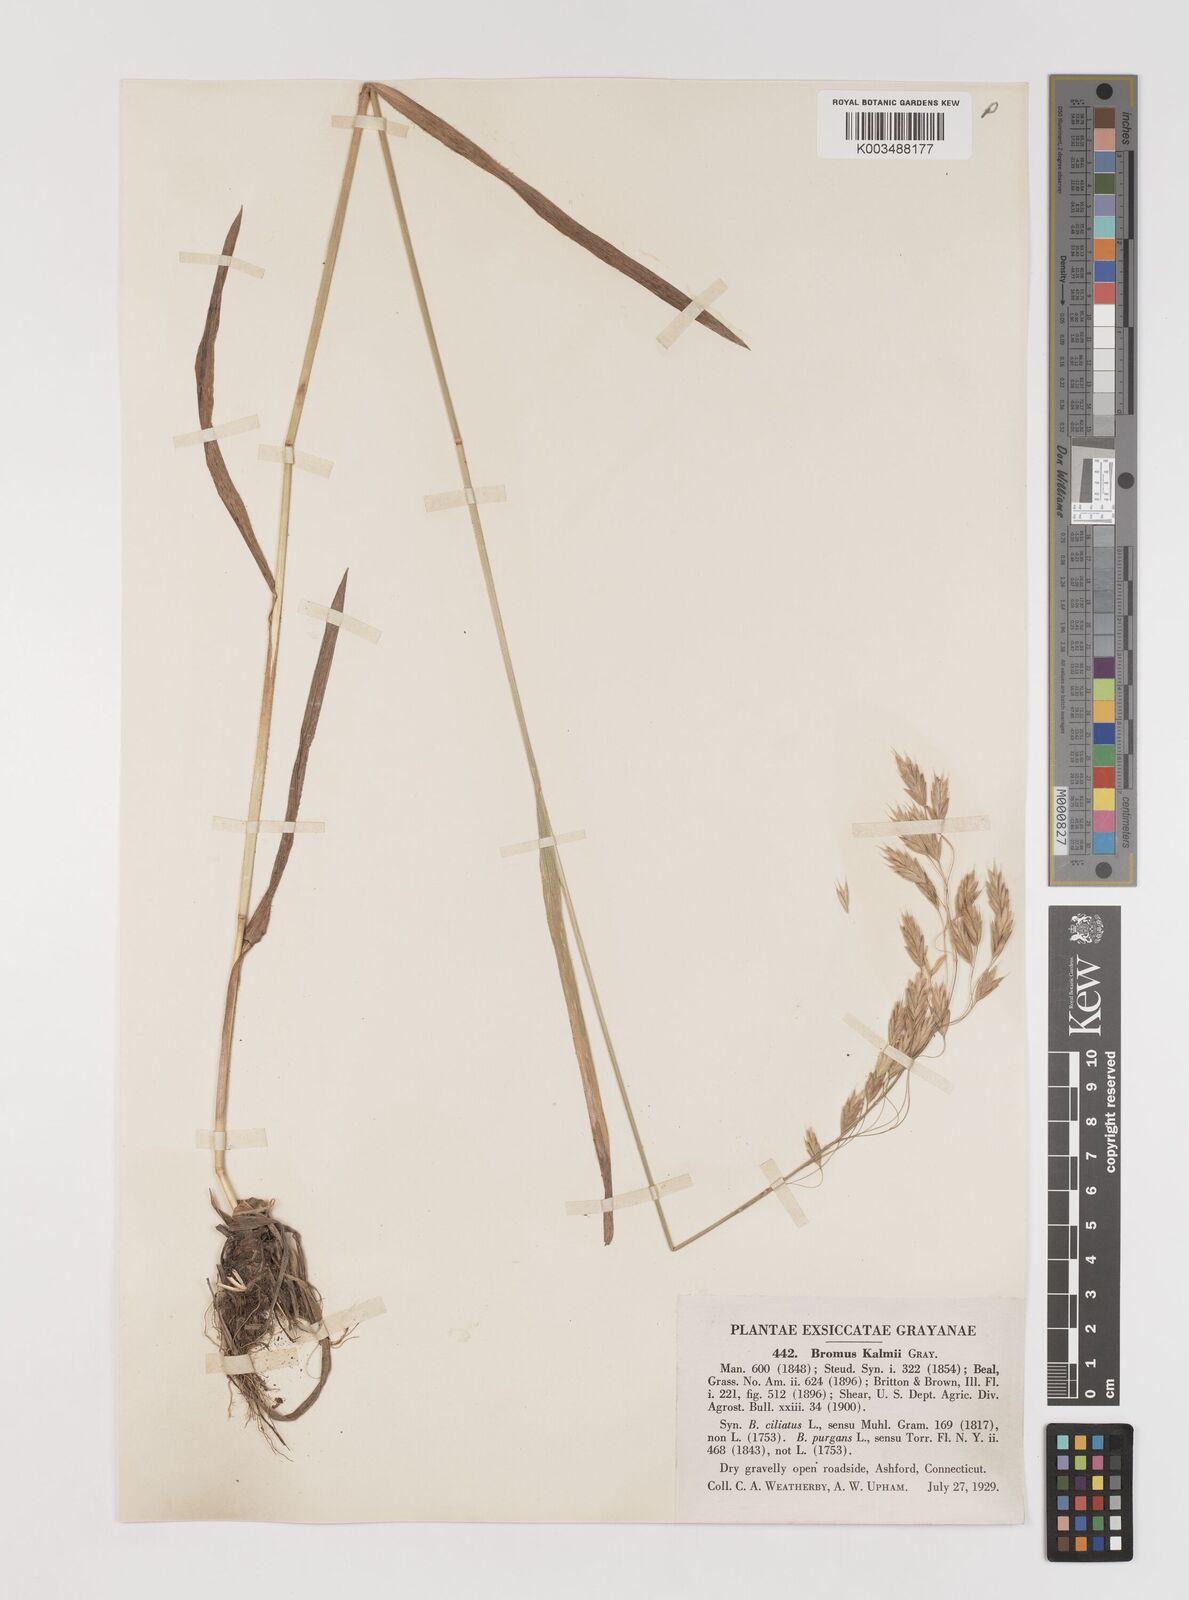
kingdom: Plantae
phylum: Tracheophyta
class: Liliopsida
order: Poales
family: Poaceae
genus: Bromus
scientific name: Bromus kalmii
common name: Kalm brome
